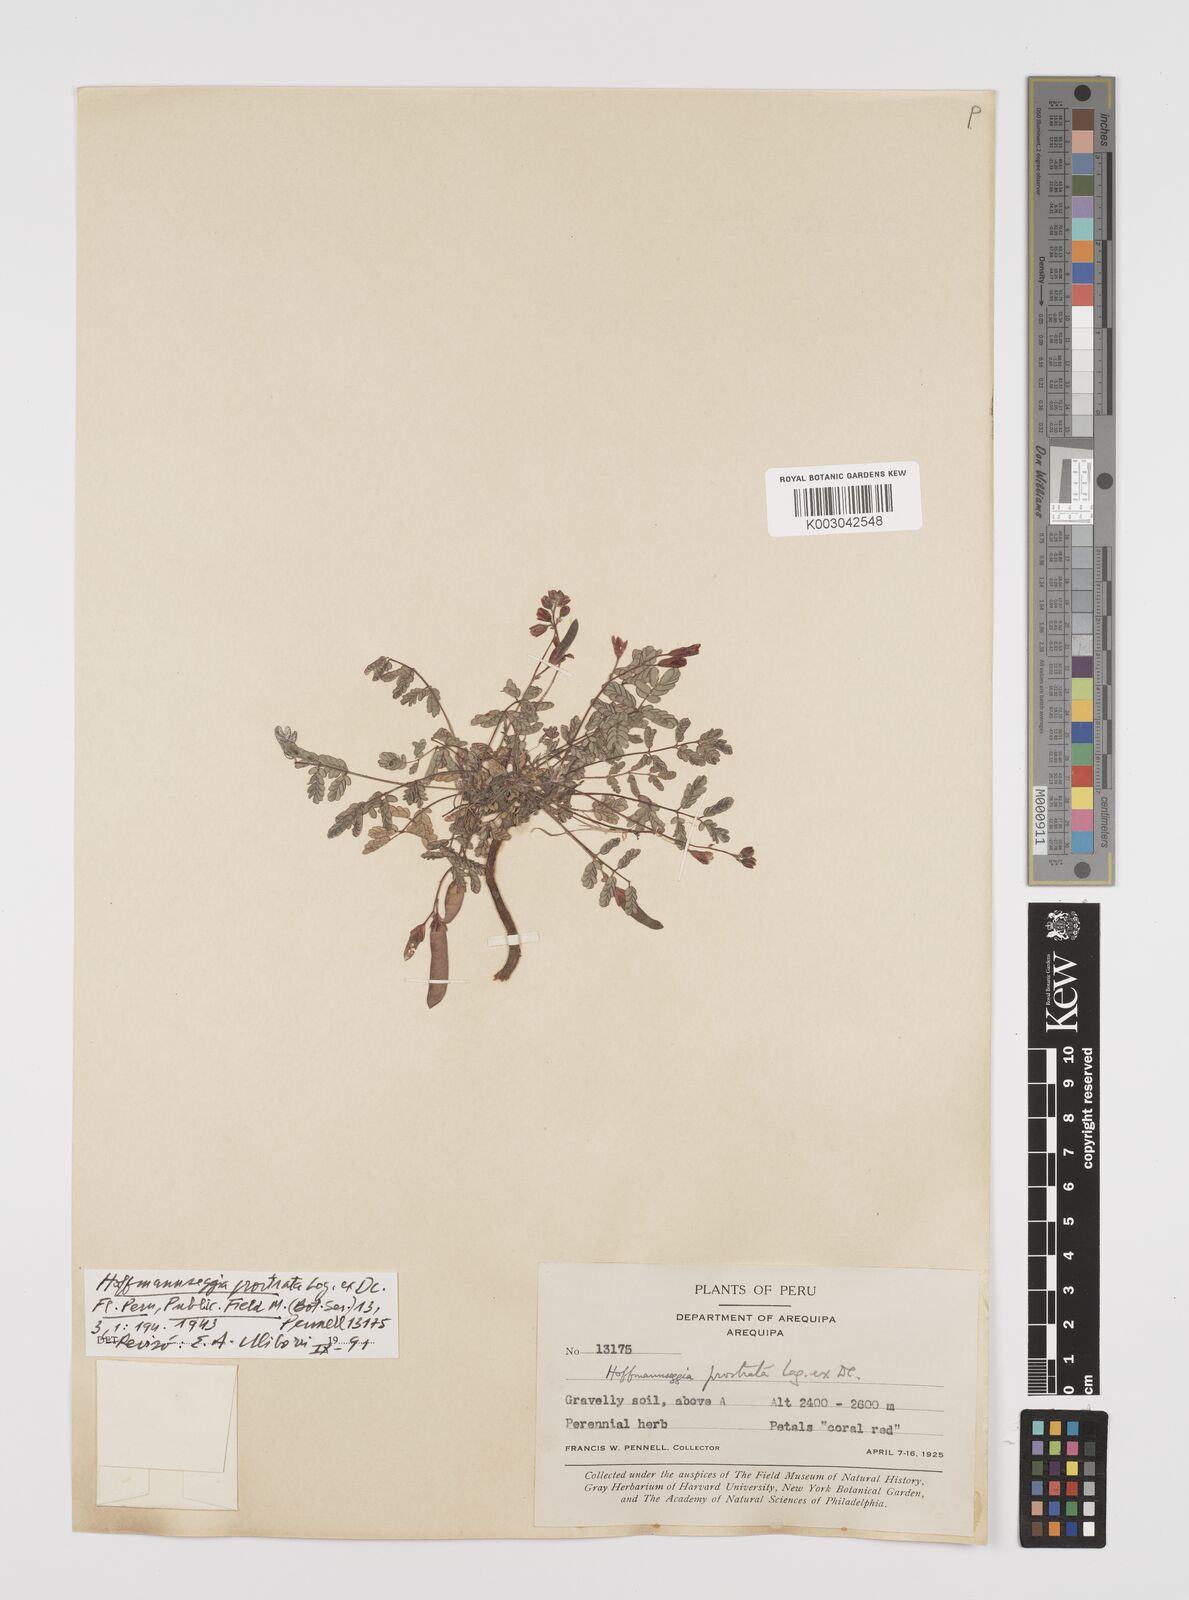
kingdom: Plantae
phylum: Tracheophyta
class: Magnoliopsida
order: Fabales
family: Fabaceae
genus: Hoffmannseggia
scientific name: Hoffmannseggia prostrata
